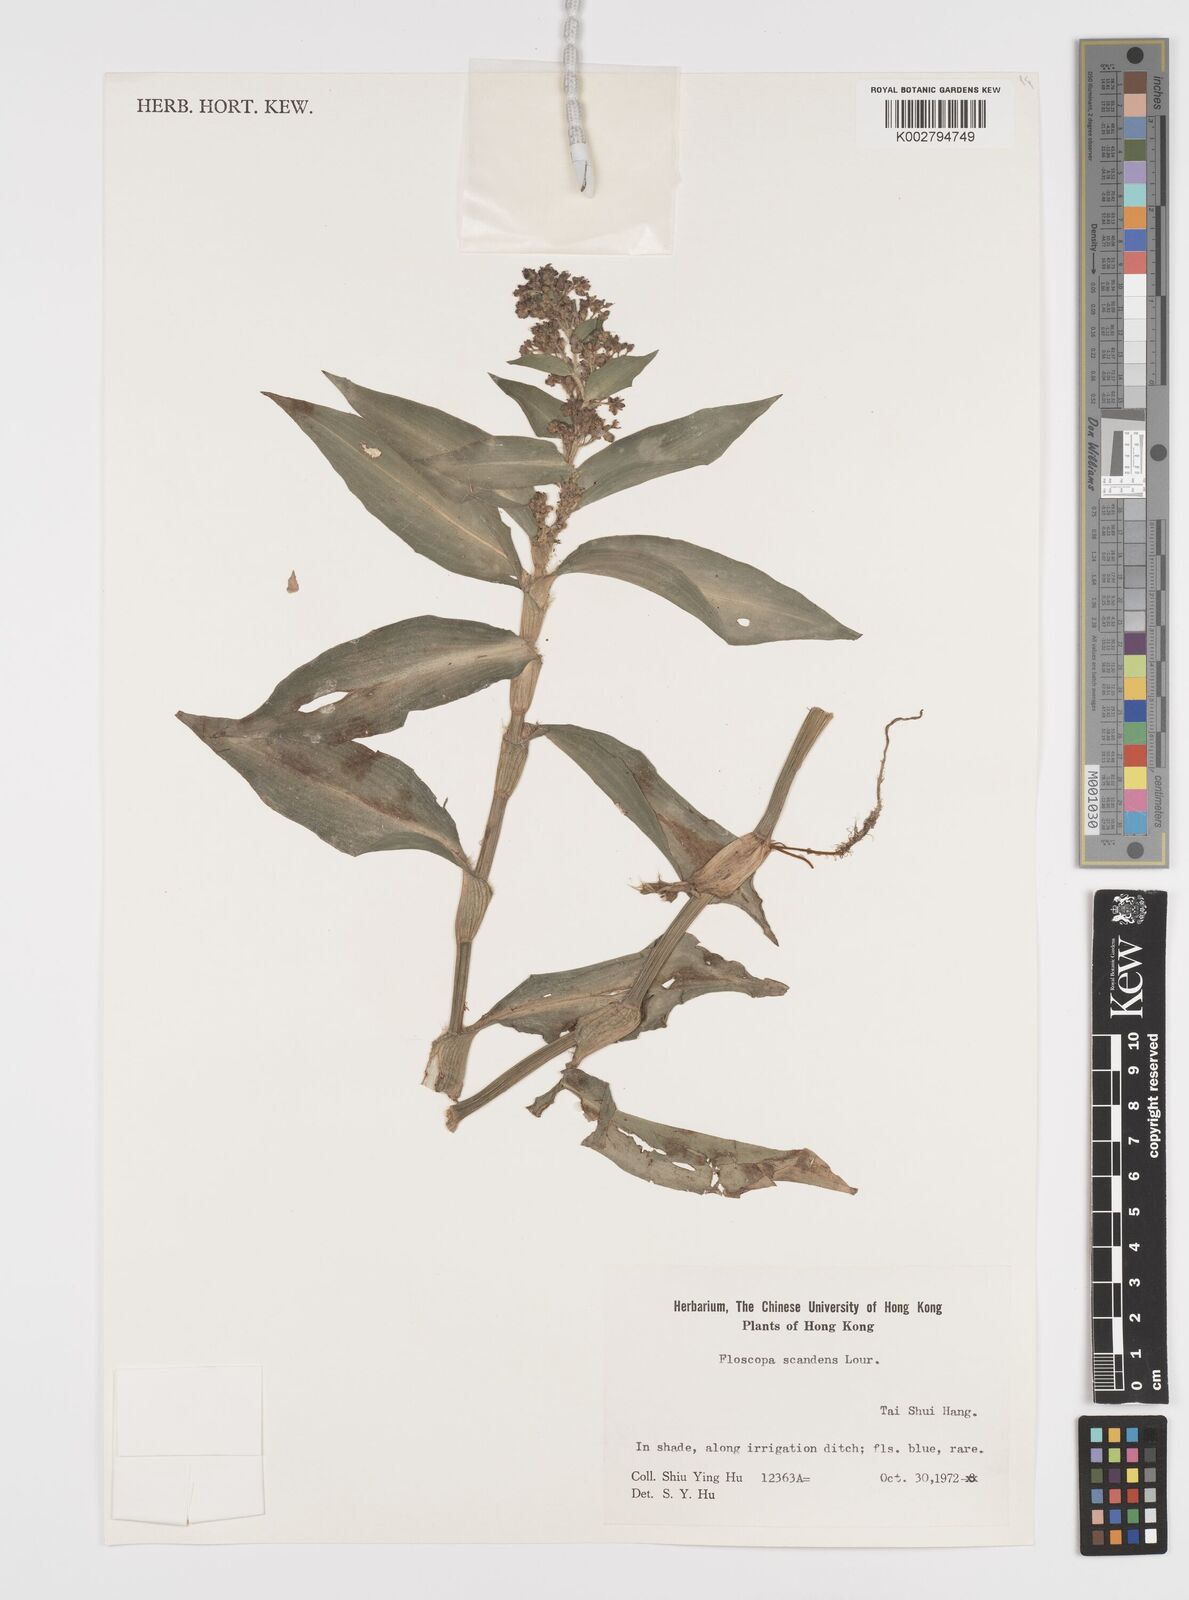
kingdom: Plantae
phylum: Tracheophyta
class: Liliopsida
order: Commelinales
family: Commelinaceae
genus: Floscopa
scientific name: Floscopa scandens
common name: Climbing flower cup
